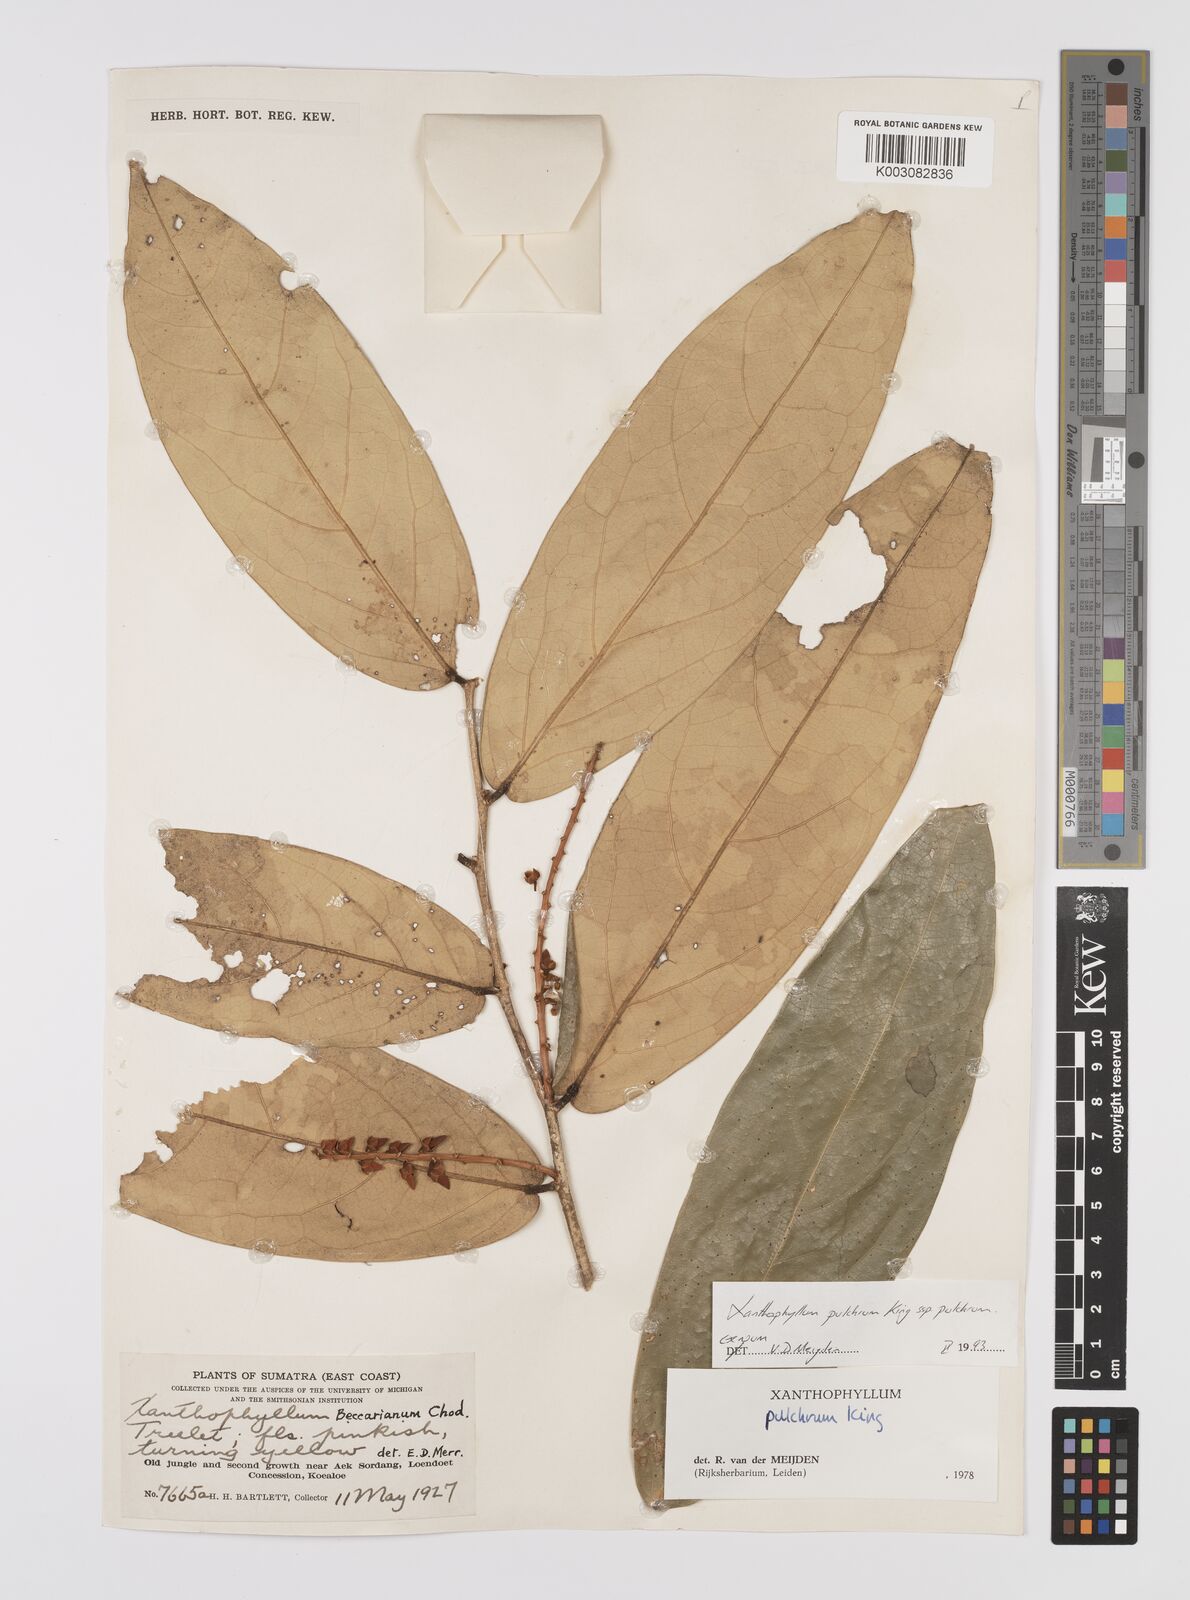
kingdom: Plantae
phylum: Tracheophyta
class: Magnoliopsida
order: Fabales
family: Polygalaceae
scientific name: Polygalaceae
